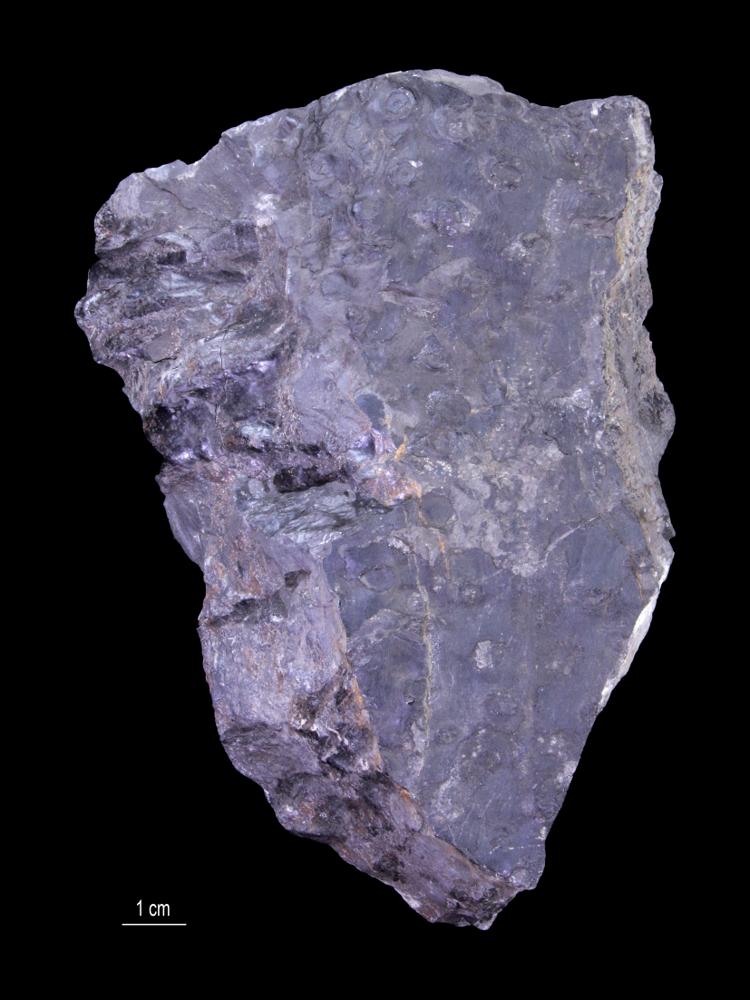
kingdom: Plantae
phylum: Tracheophyta
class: Lycopodiopsida
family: Lepidodendraceae
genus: Stigmaria
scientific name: Stigmaria ficoides
